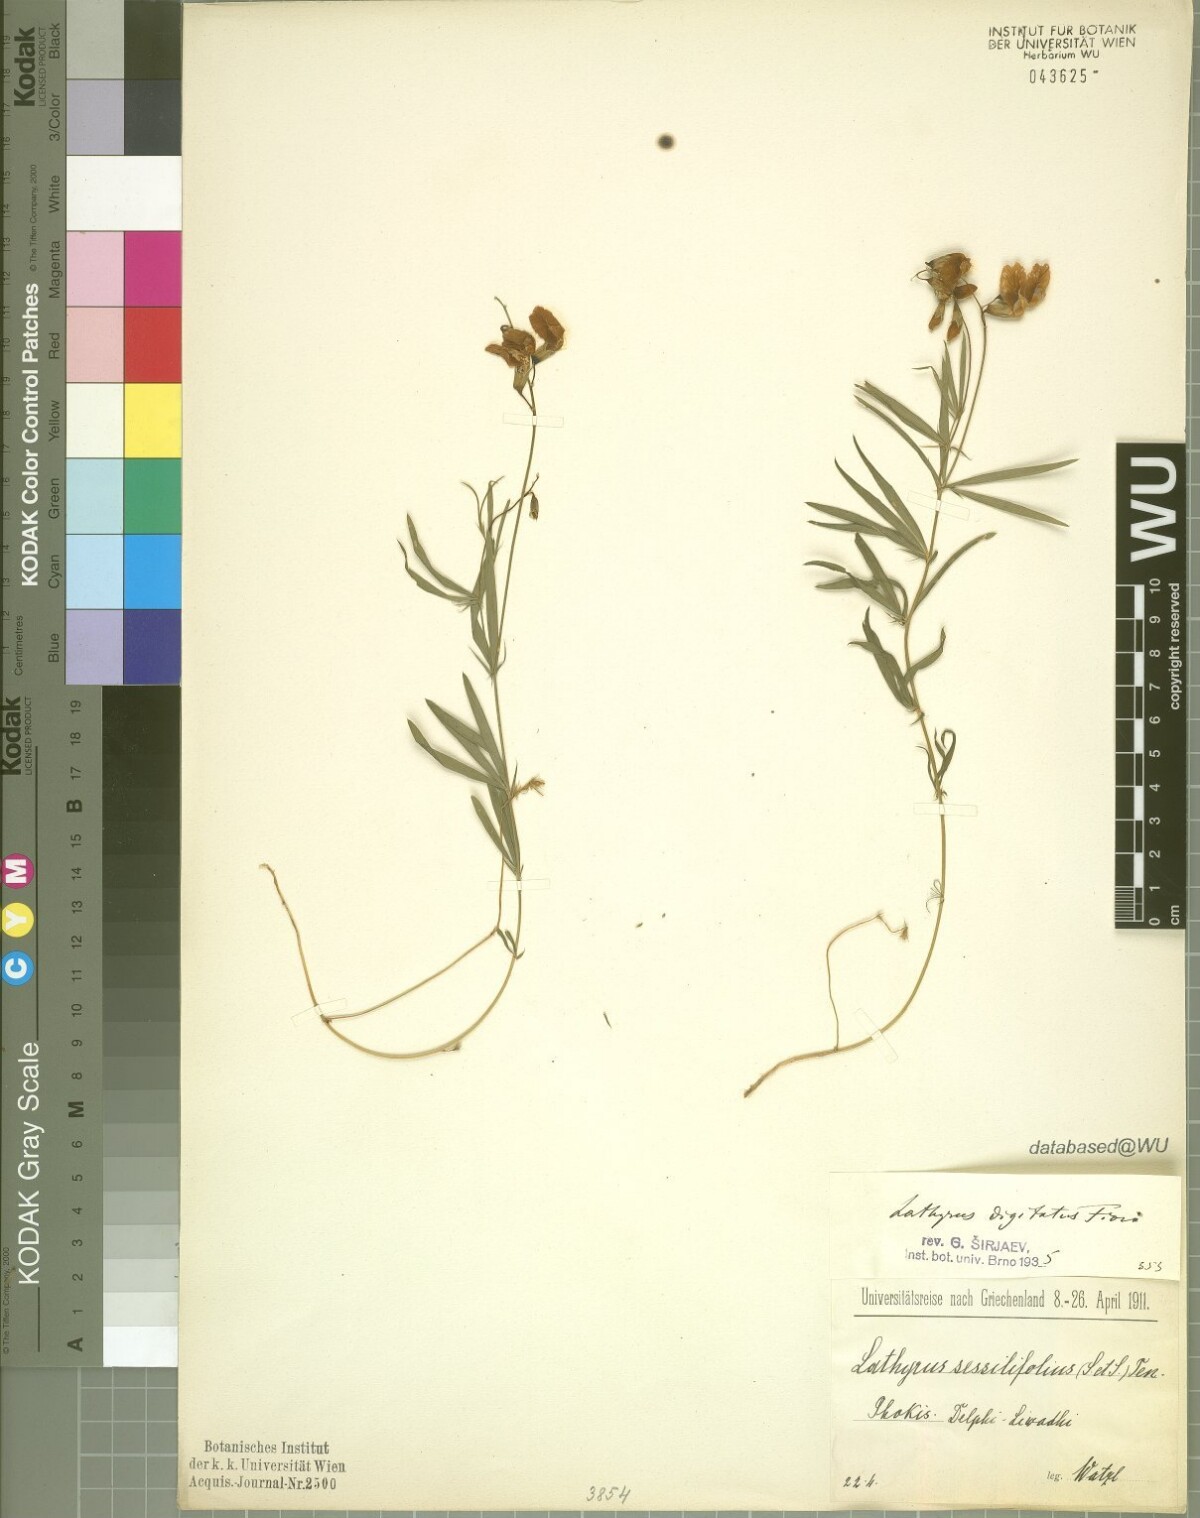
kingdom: Plantae
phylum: Tracheophyta
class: Magnoliopsida
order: Fabales
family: Fabaceae
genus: Lathyrus
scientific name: Lathyrus digitatus
